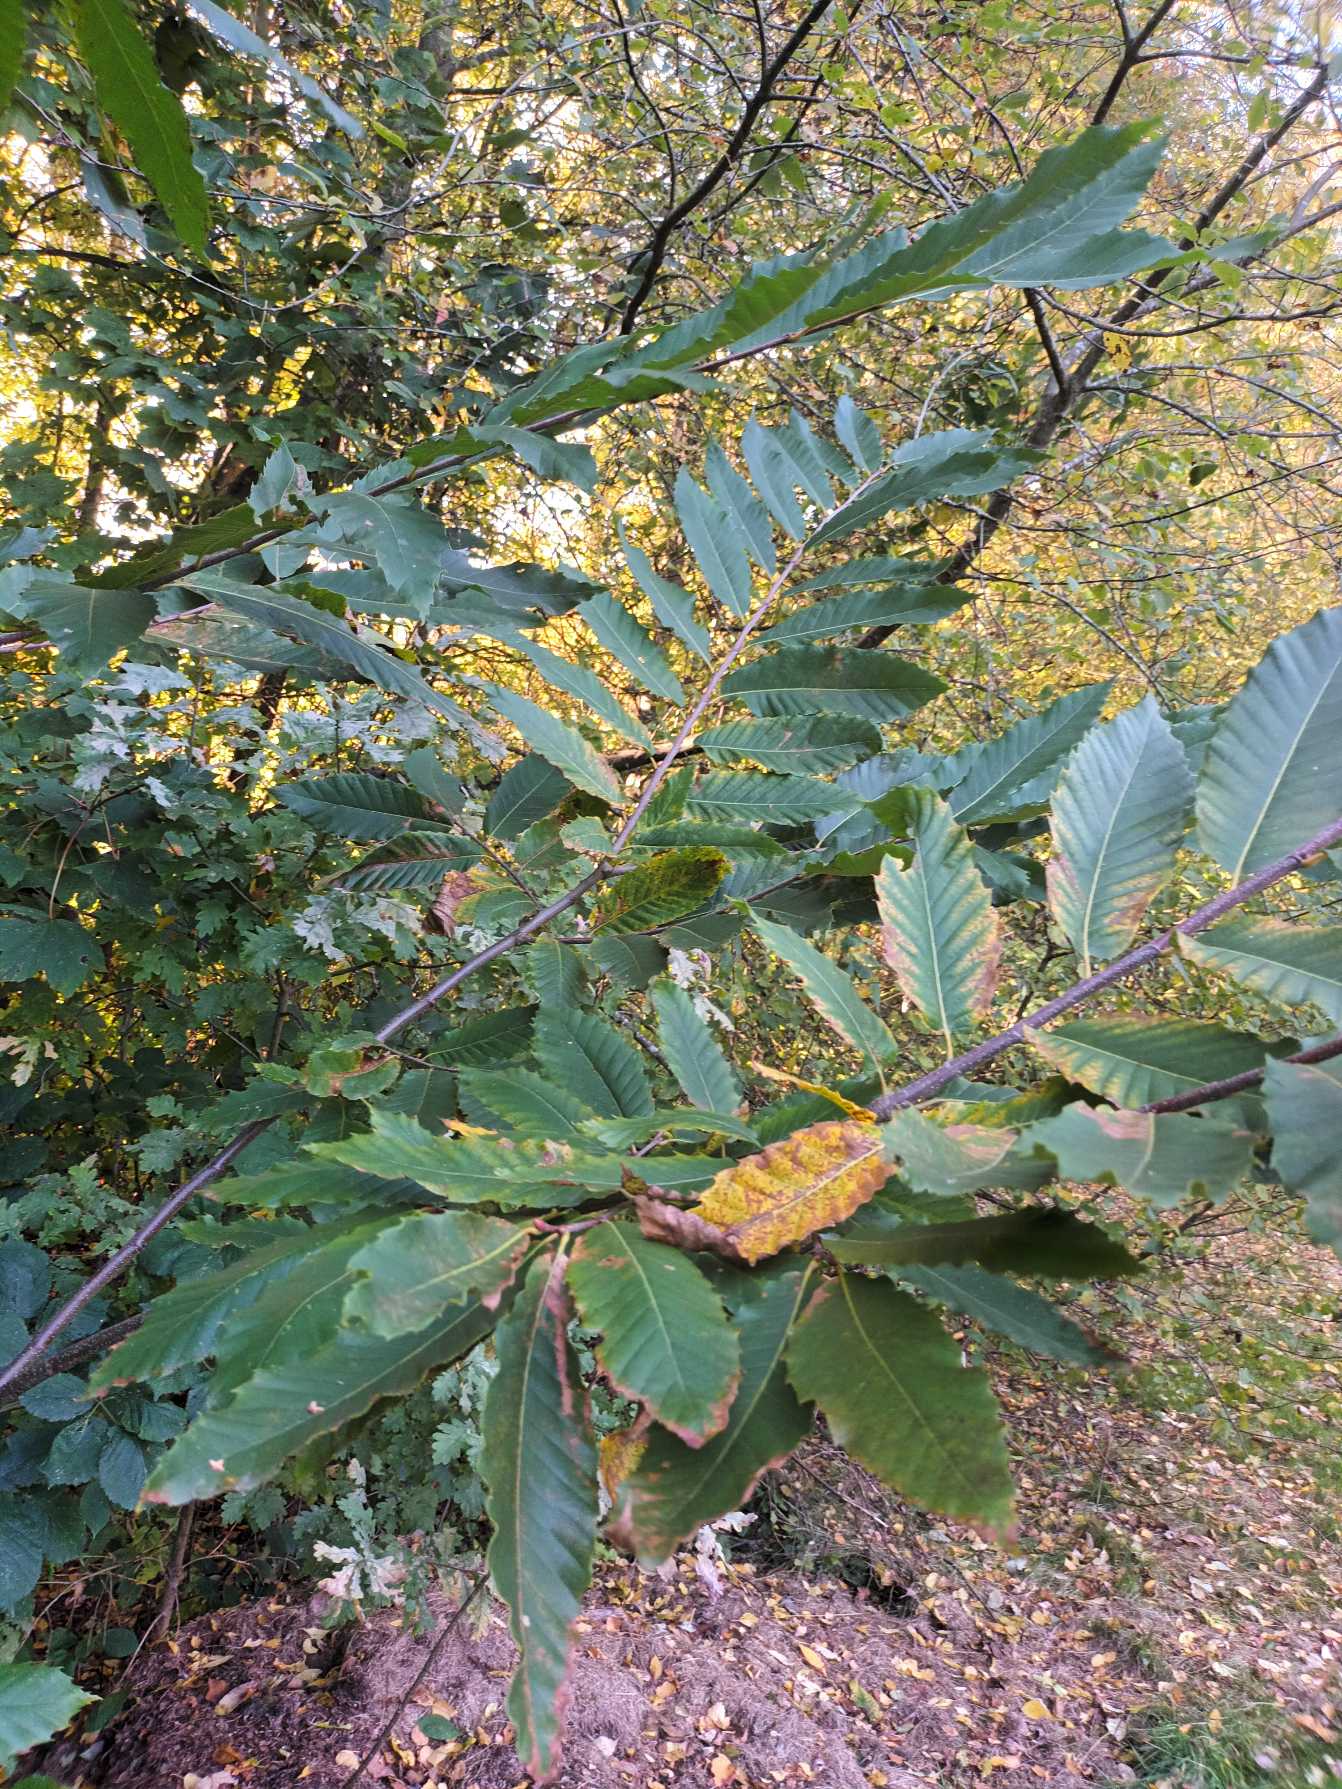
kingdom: Plantae
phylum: Tracheophyta
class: Magnoliopsida
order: Fagales
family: Fagaceae
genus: Castanea
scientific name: Castanea sativa
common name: Ægte kastanie
